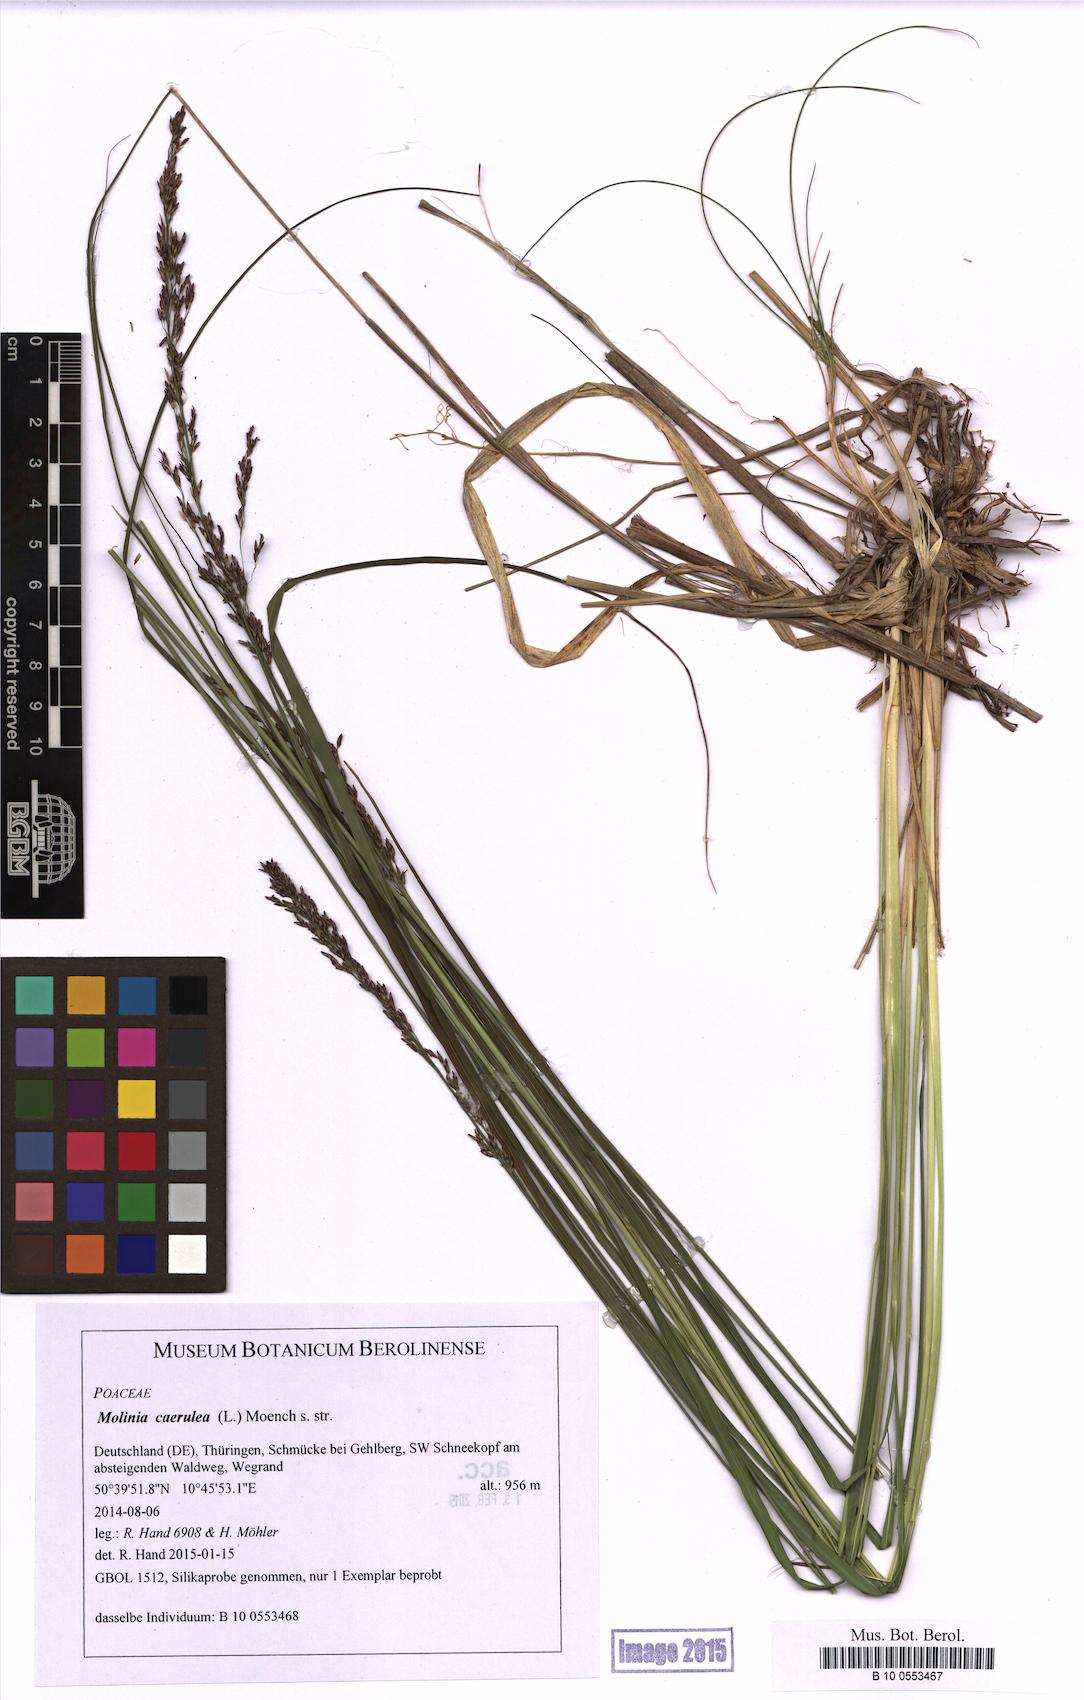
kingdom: Plantae
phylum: Tracheophyta
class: Liliopsida
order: Poales
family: Poaceae
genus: Molinia
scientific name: Molinia caerulea
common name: Purple moor-grass
